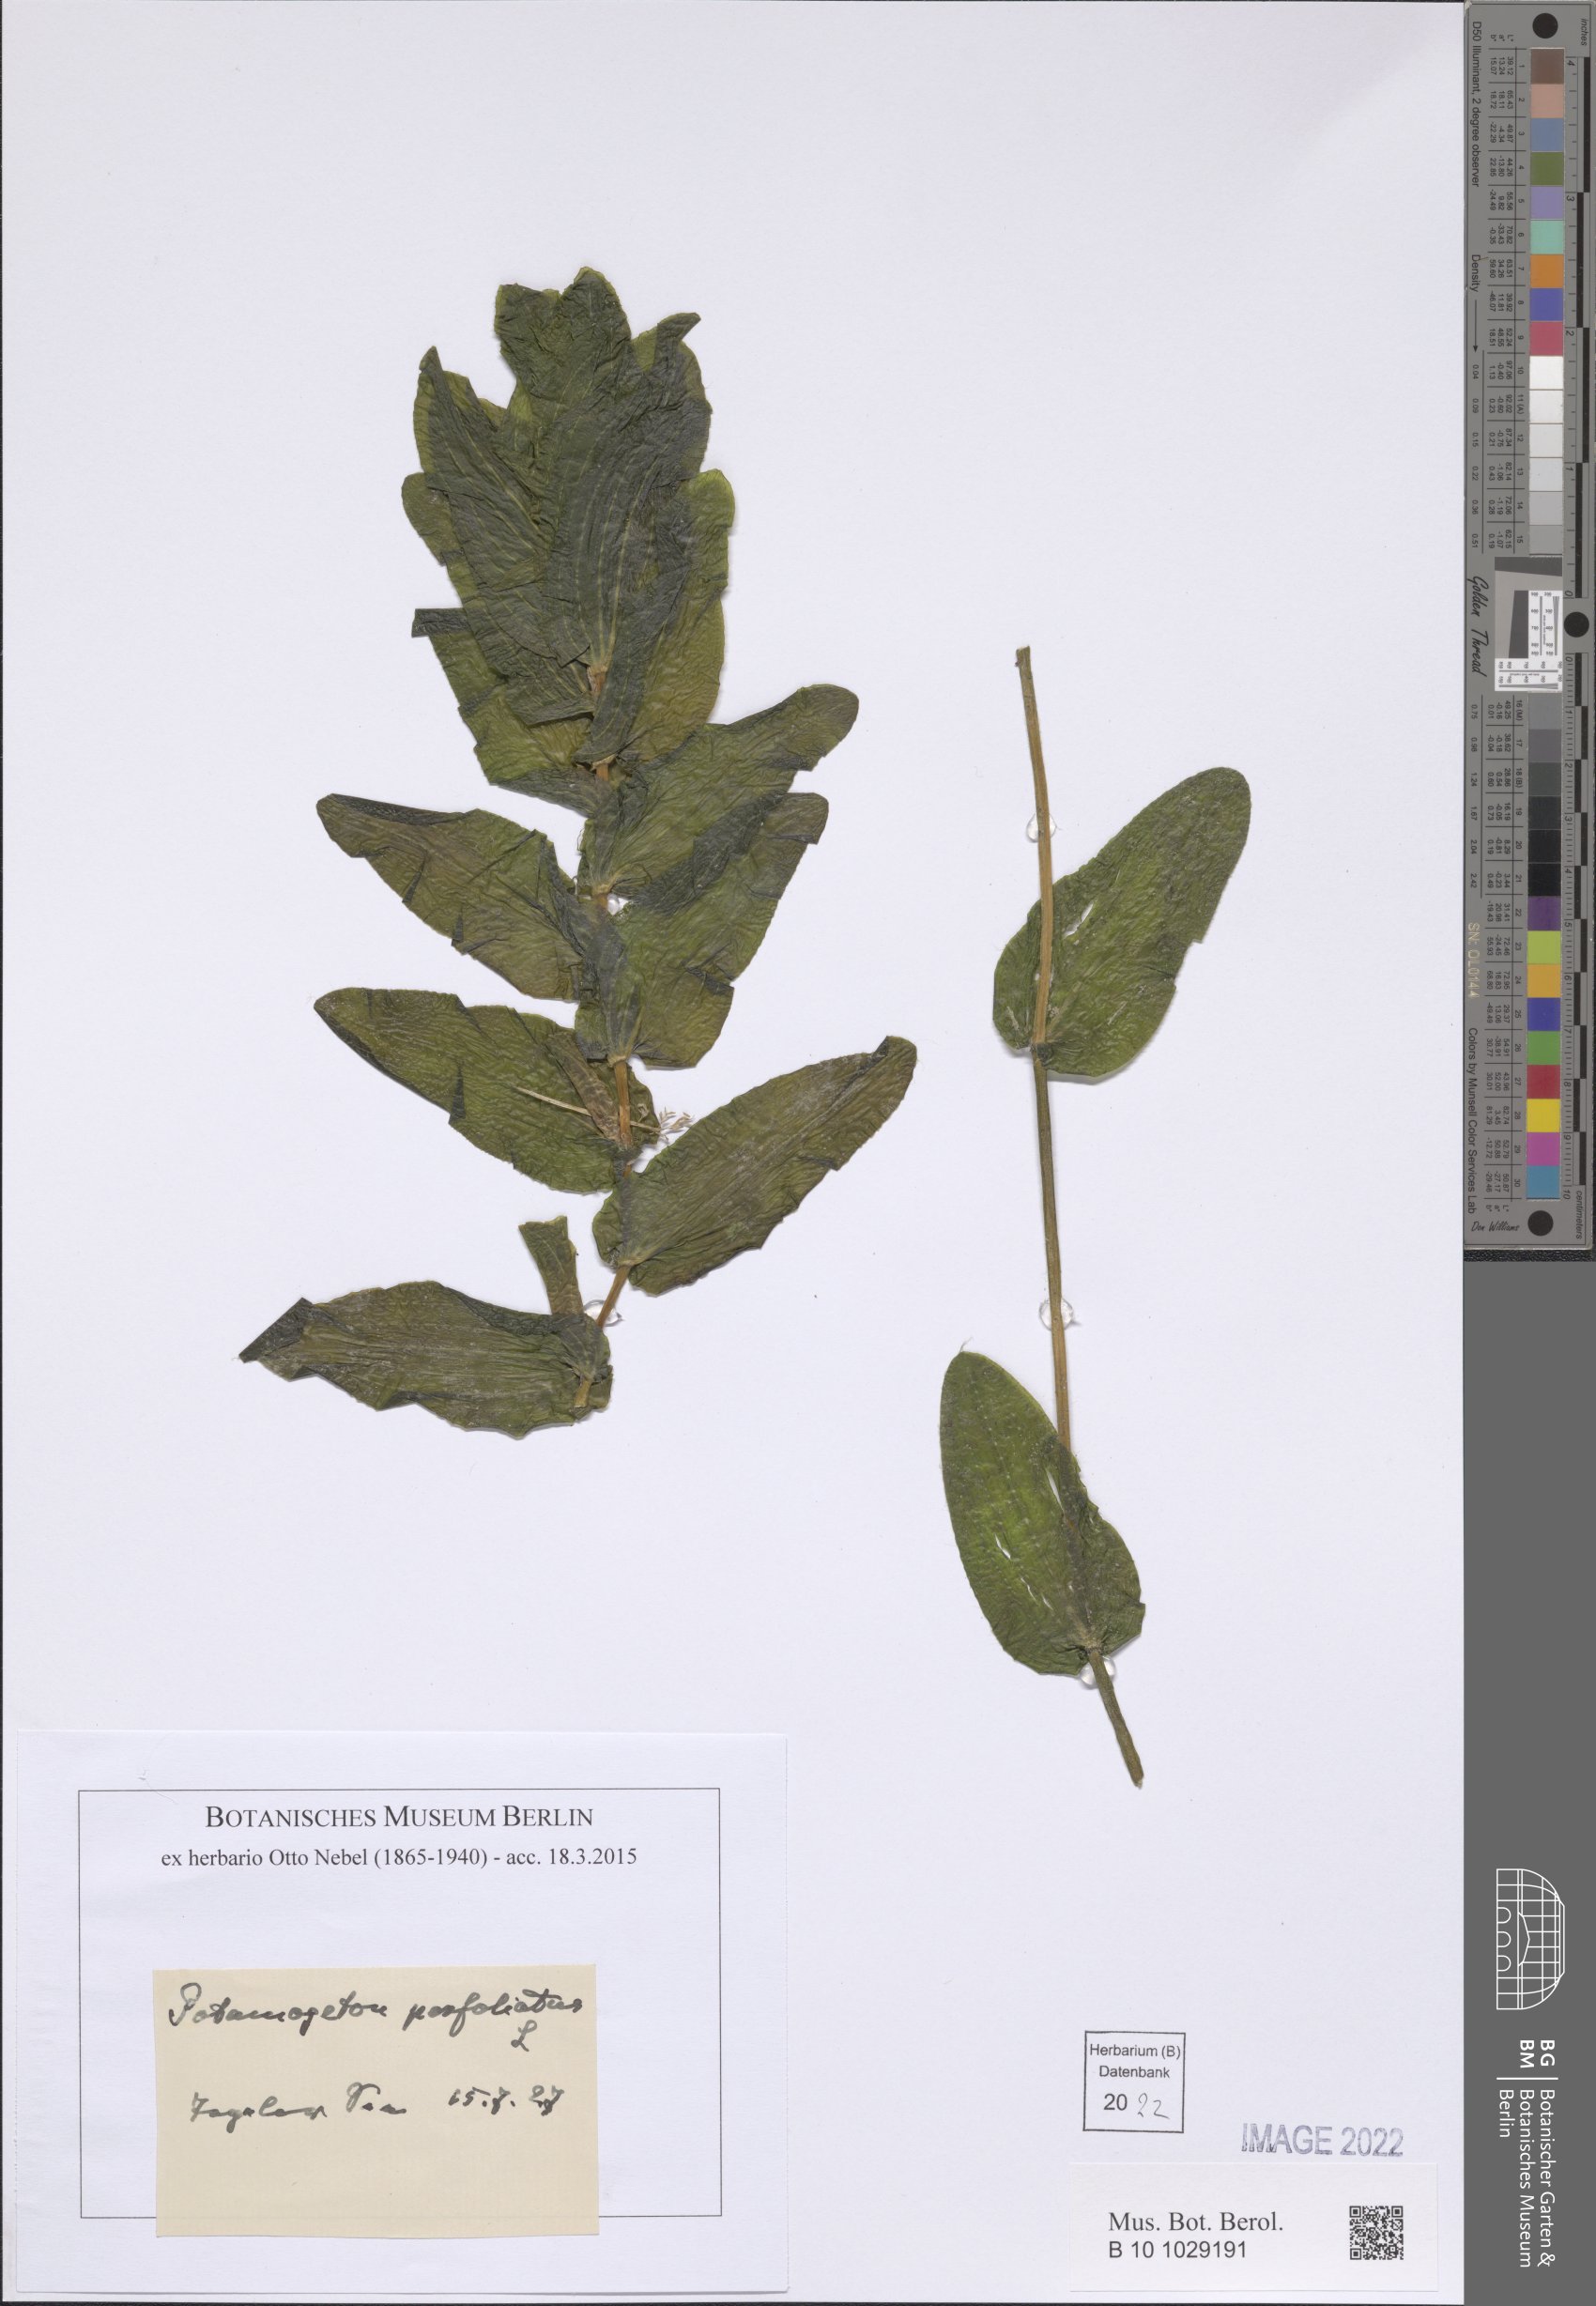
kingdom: Plantae
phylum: Tracheophyta
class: Liliopsida
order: Alismatales
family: Potamogetonaceae
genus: Potamogeton
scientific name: Potamogeton perfoliatus
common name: Perfoliate pondweed
